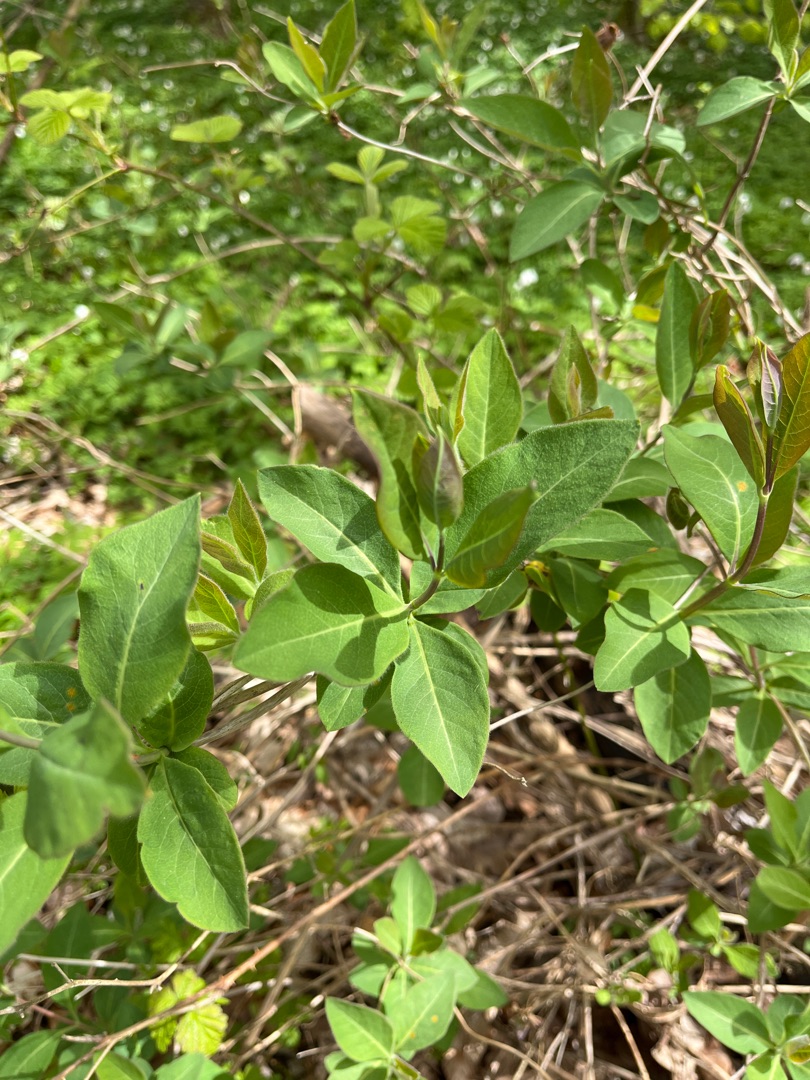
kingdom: Plantae
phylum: Tracheophyta
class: Magnoliopsida
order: Dipsacales
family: Caprifoliaceae
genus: Lonicera
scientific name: Lonicera periclymenum
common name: Almindelig gedeblad
